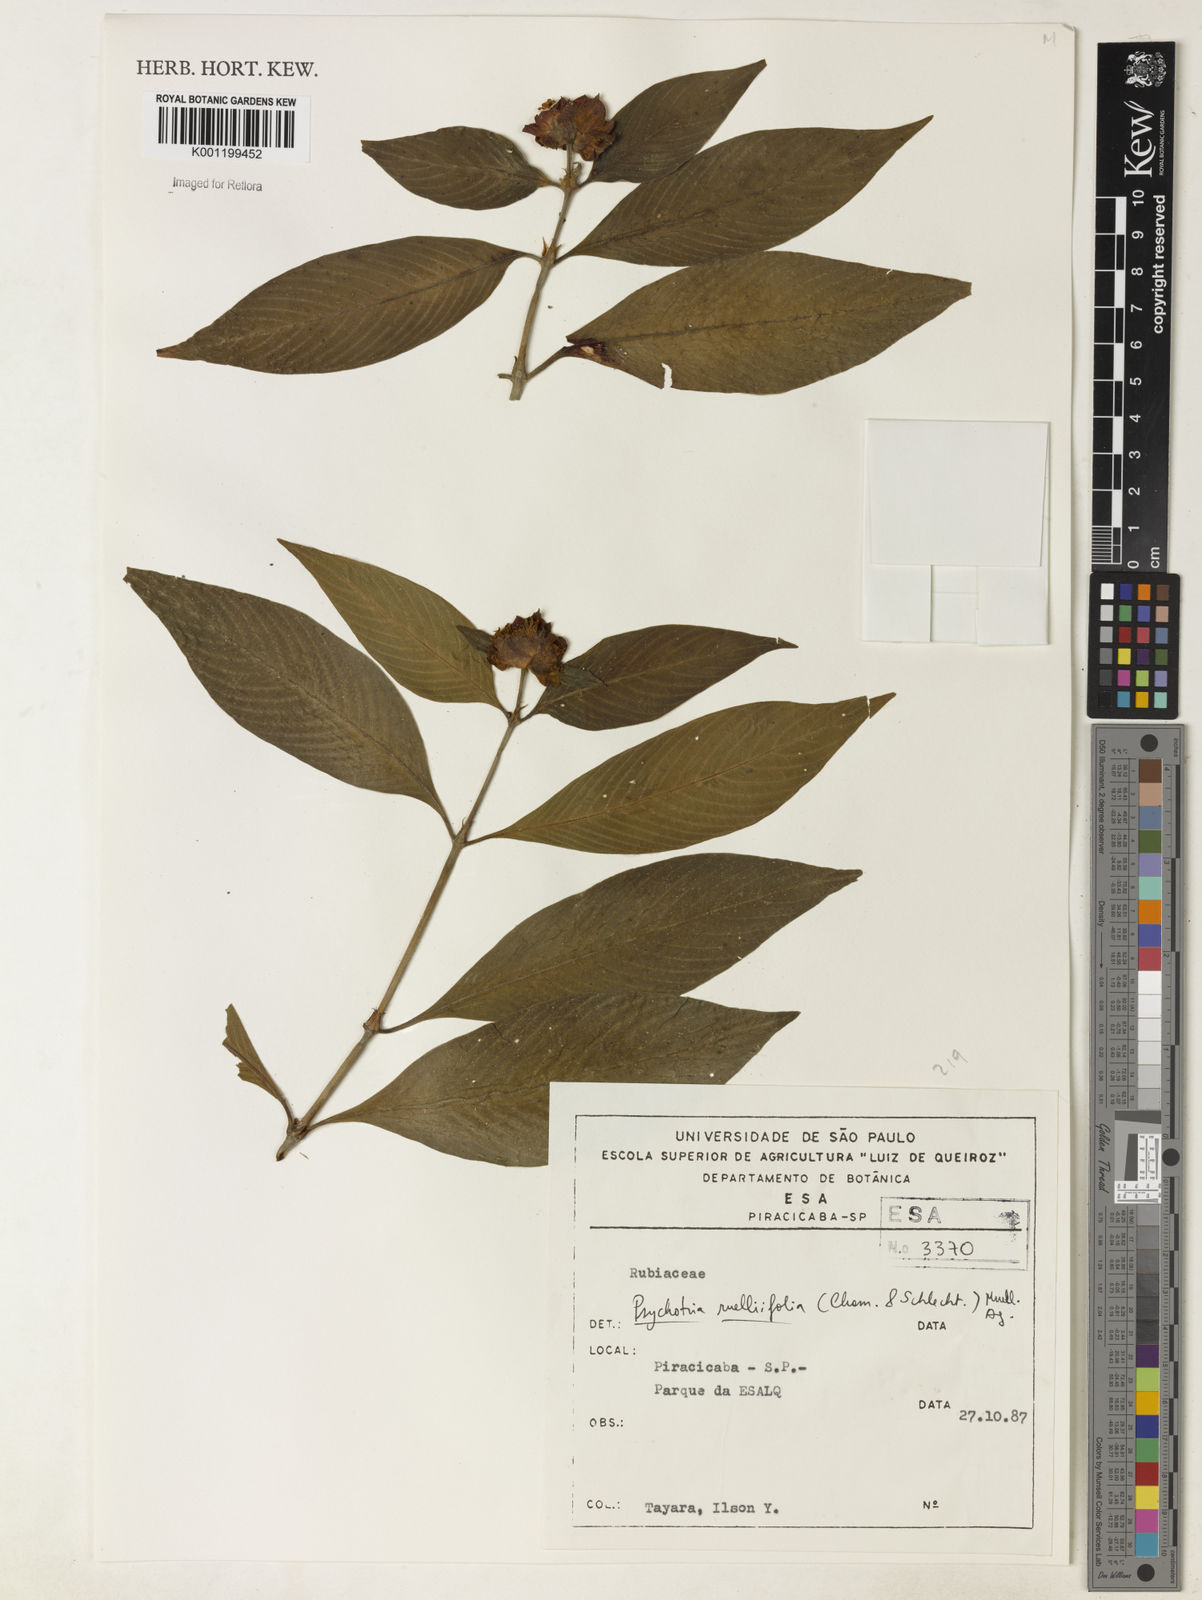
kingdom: Plantae
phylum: Tracheophyta
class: Magnoliopsida
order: Gentianales
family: Rubiaceae
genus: Psychotria
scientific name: Psychotria
